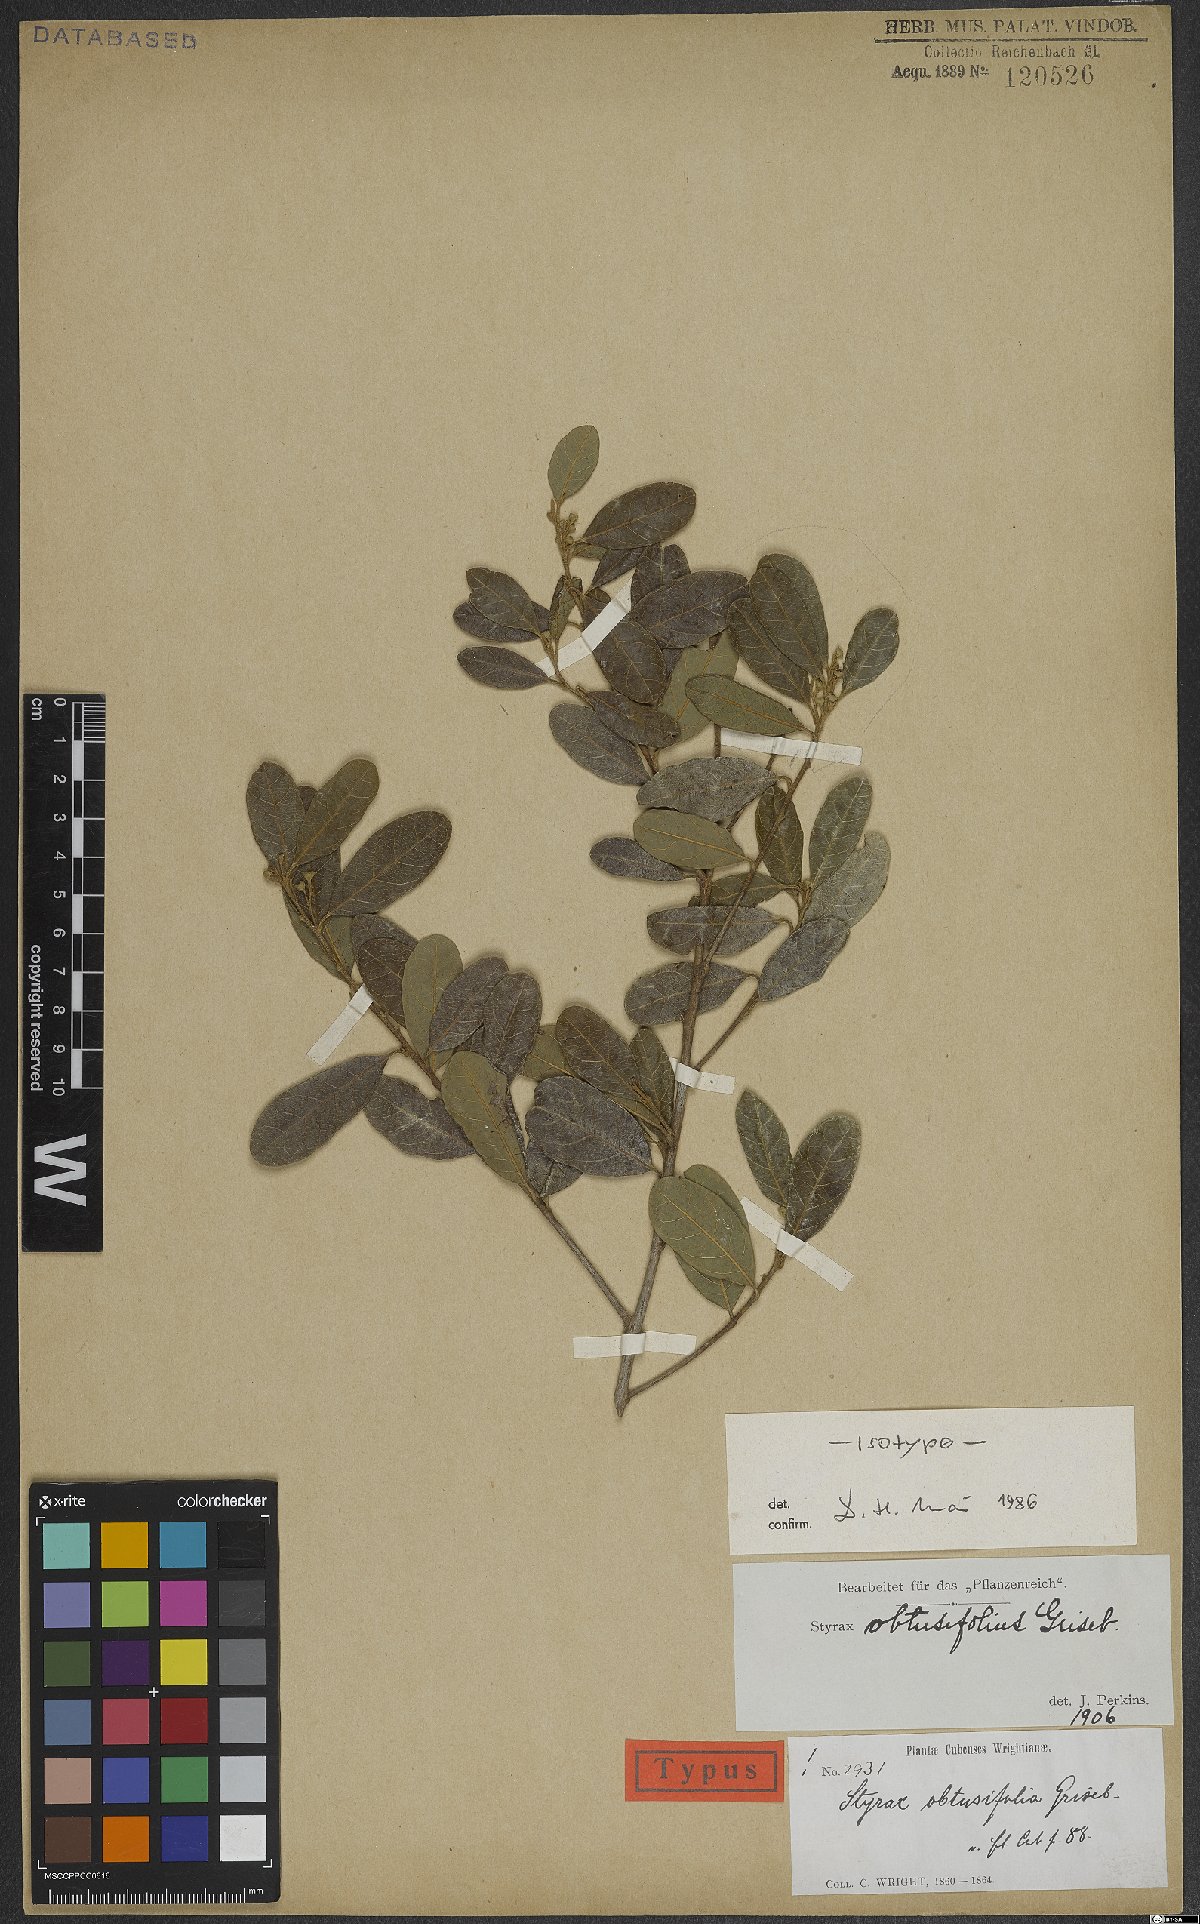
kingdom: Plantae
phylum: Tracheophyta
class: Magnoliopsida
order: Ericales
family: Styracaceae
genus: Styrax
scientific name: Styrax obtusifolius
